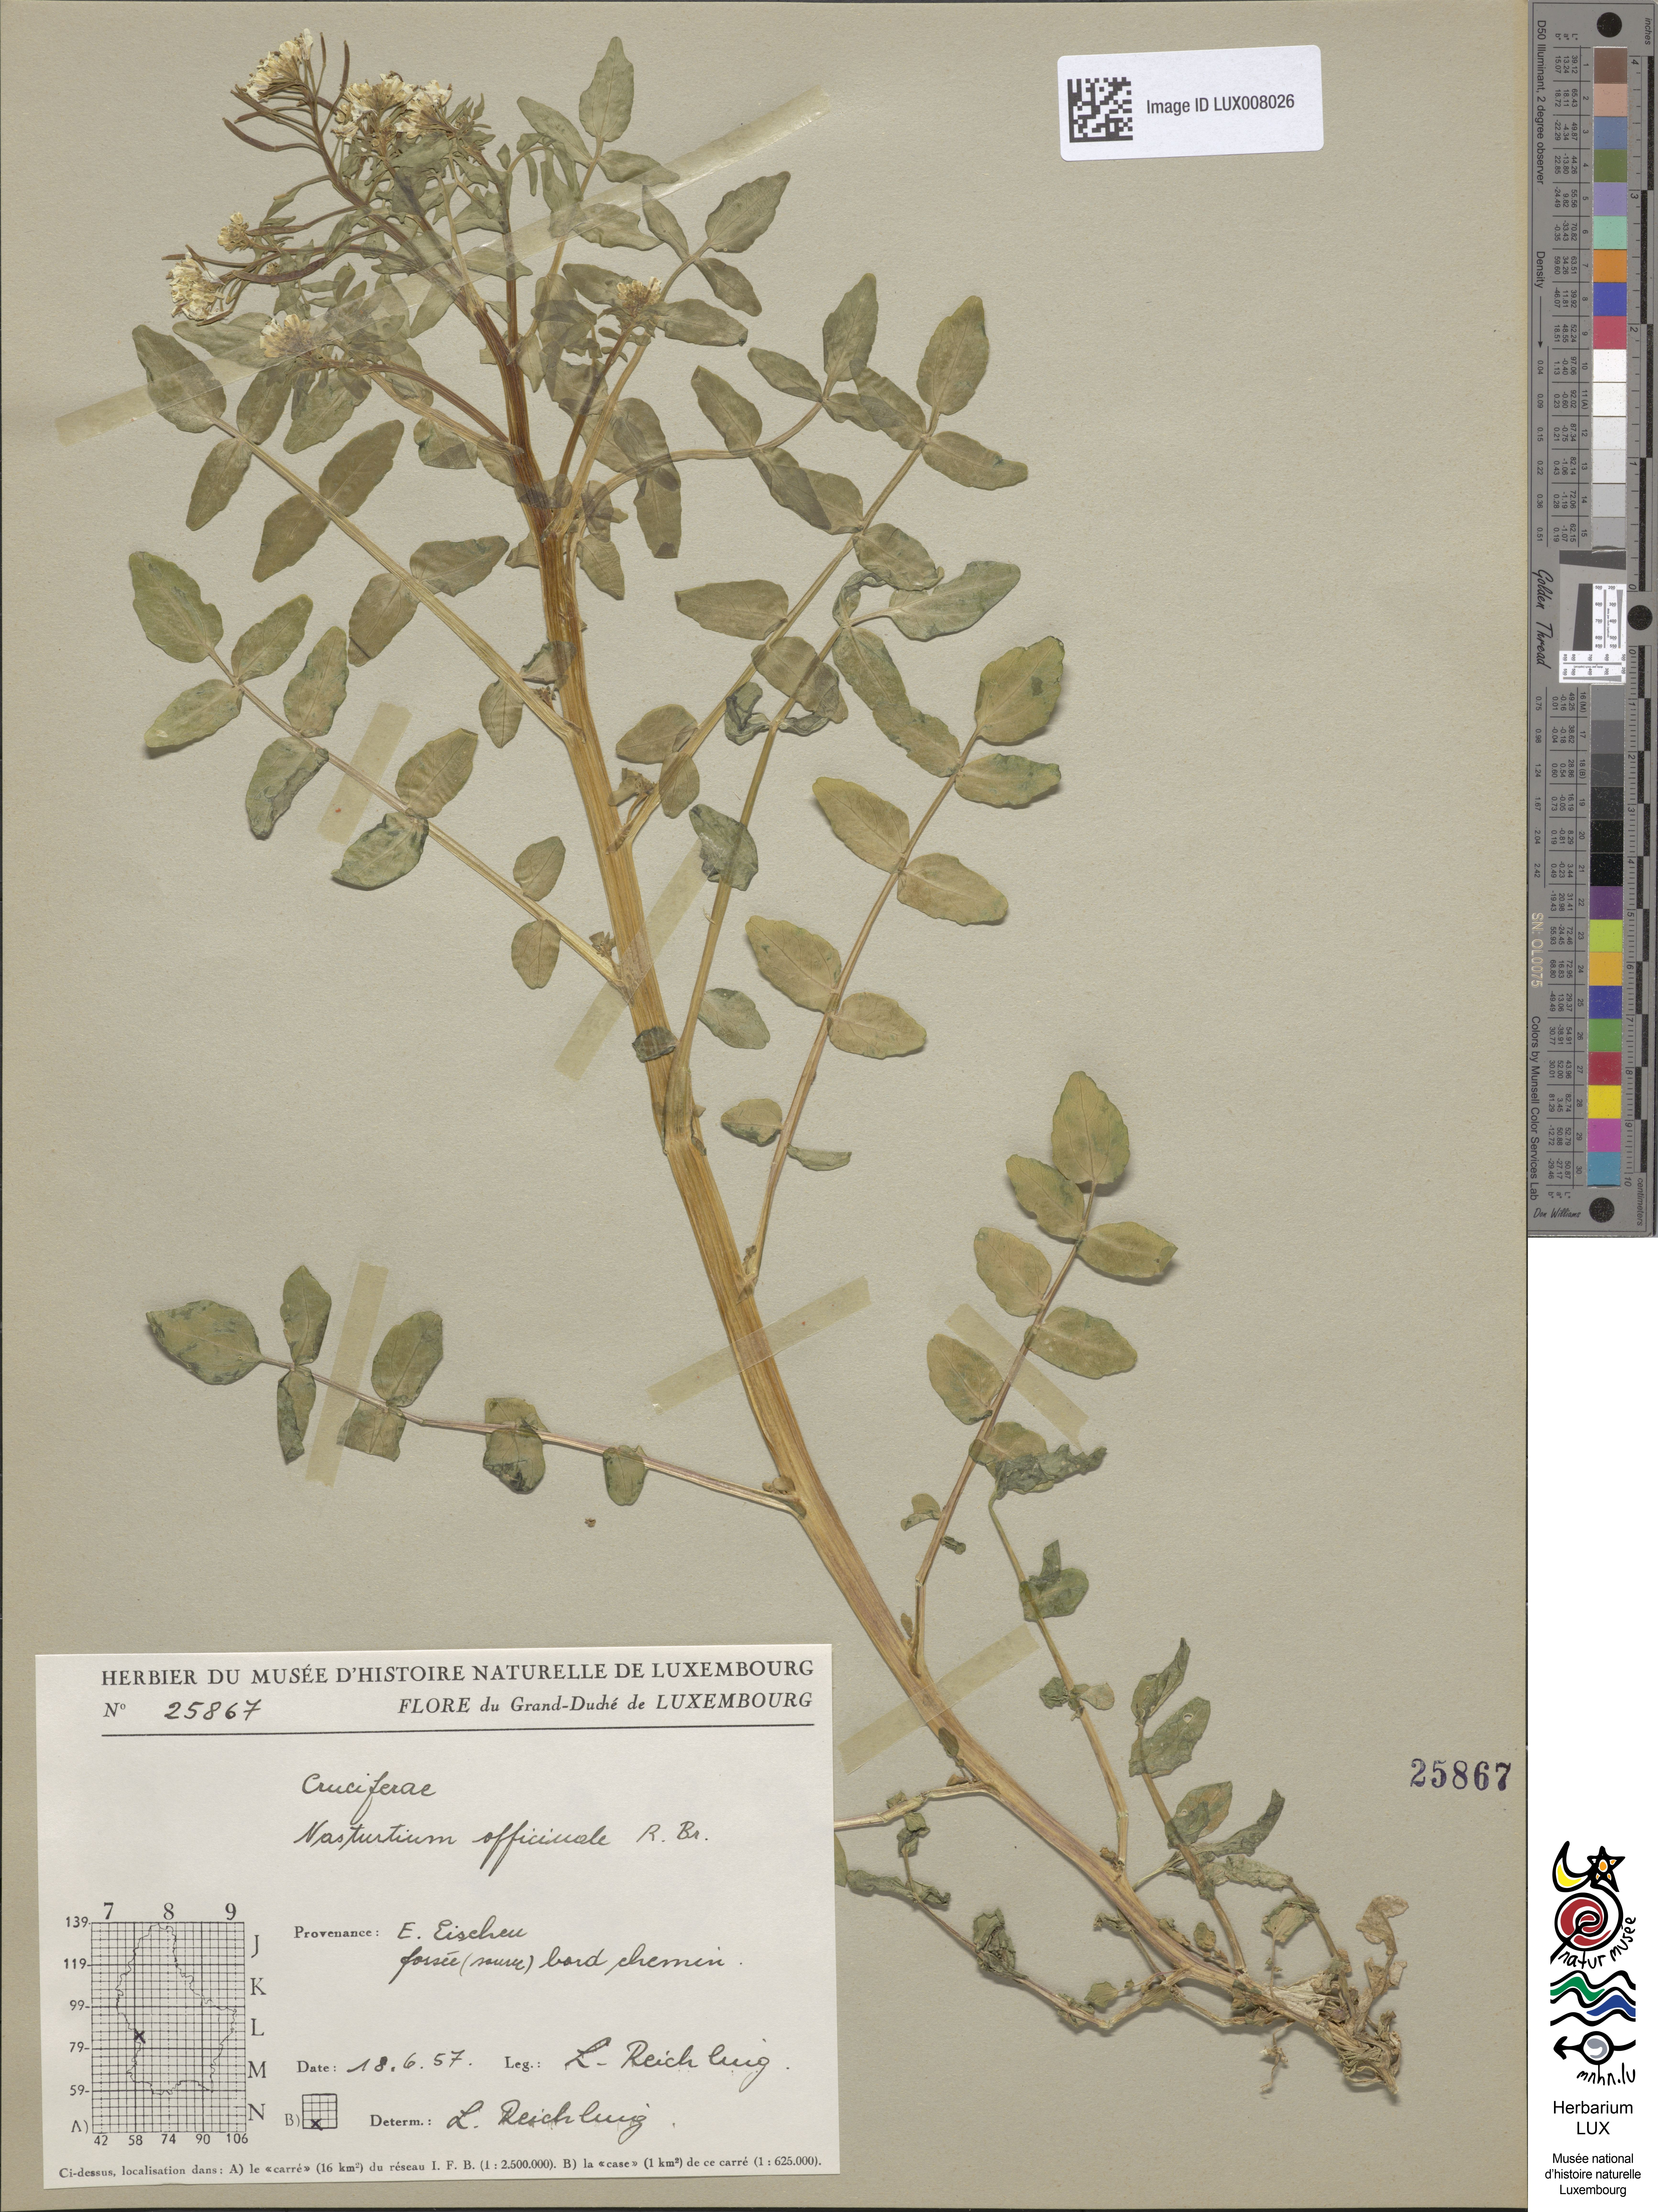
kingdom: Plantae
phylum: Tracheophyta
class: Magnoliopsida
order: Brassicales
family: Brassicaceae
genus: Nasturtium
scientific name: Nasturtium officinale
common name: Watercress
